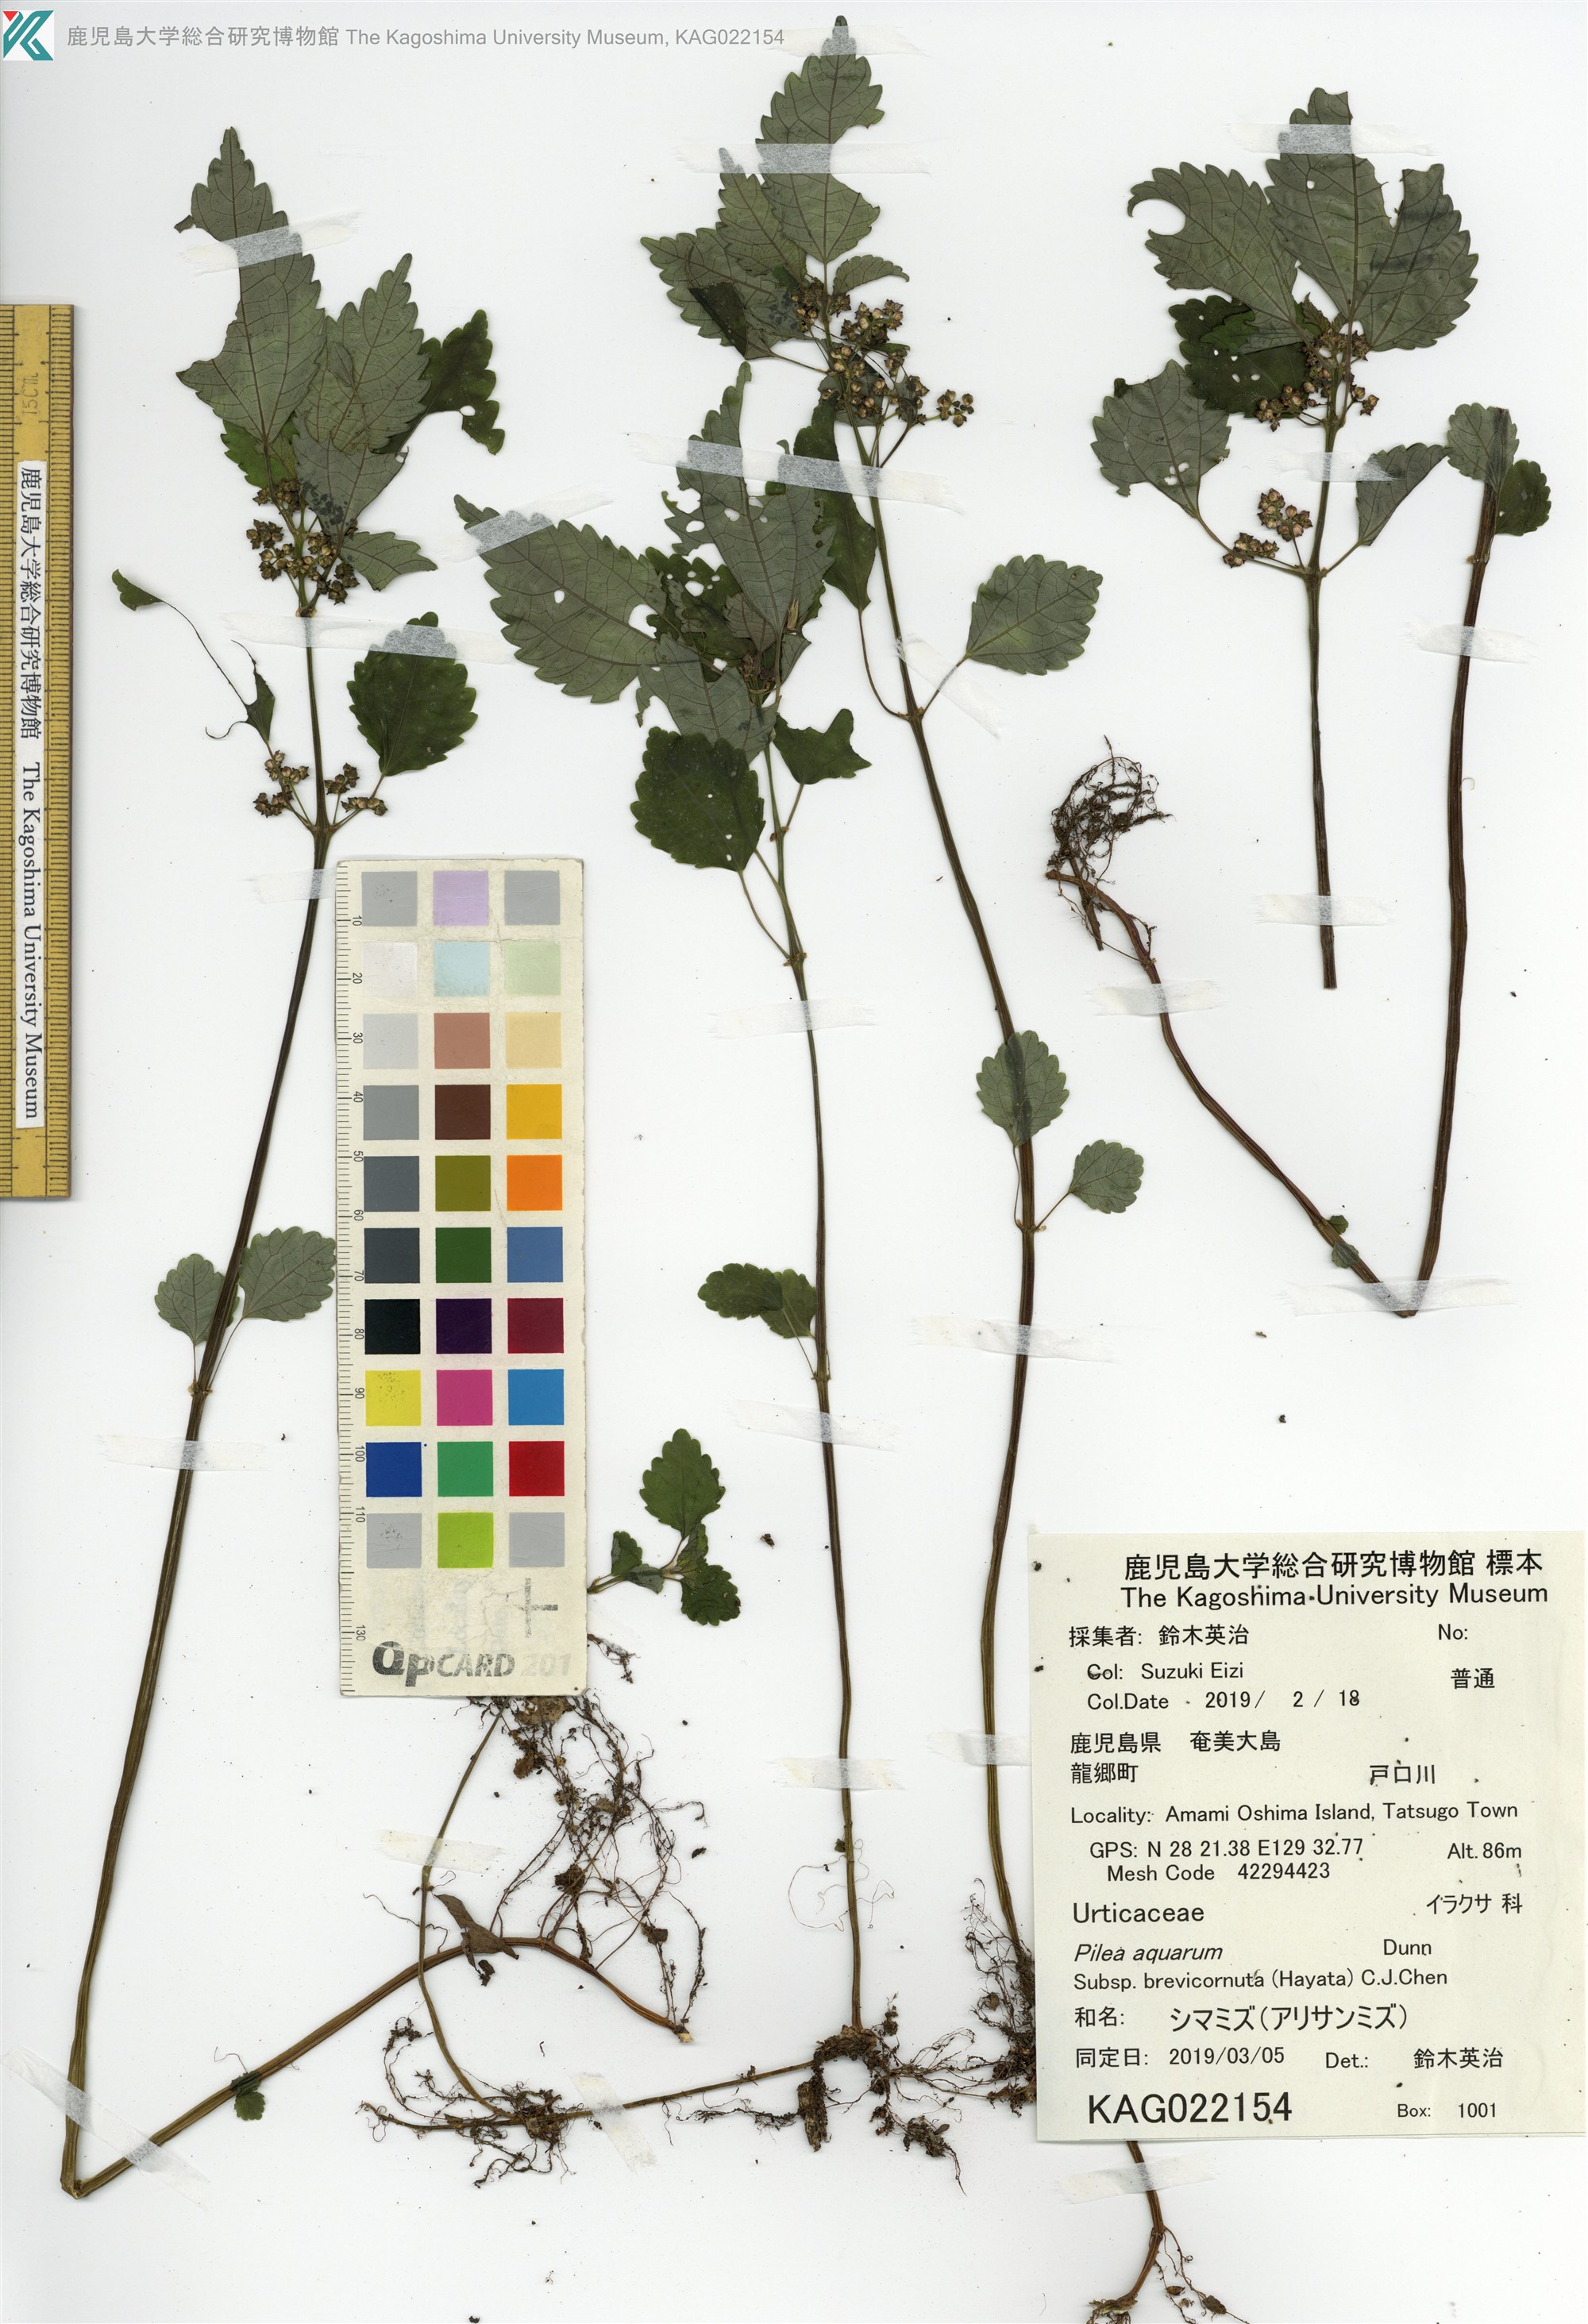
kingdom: Plantae
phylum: Tracheophyta
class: Magnoliopsida
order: Rosales
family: Urticaceae
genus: Pilea
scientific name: Pilea brevicornuta
